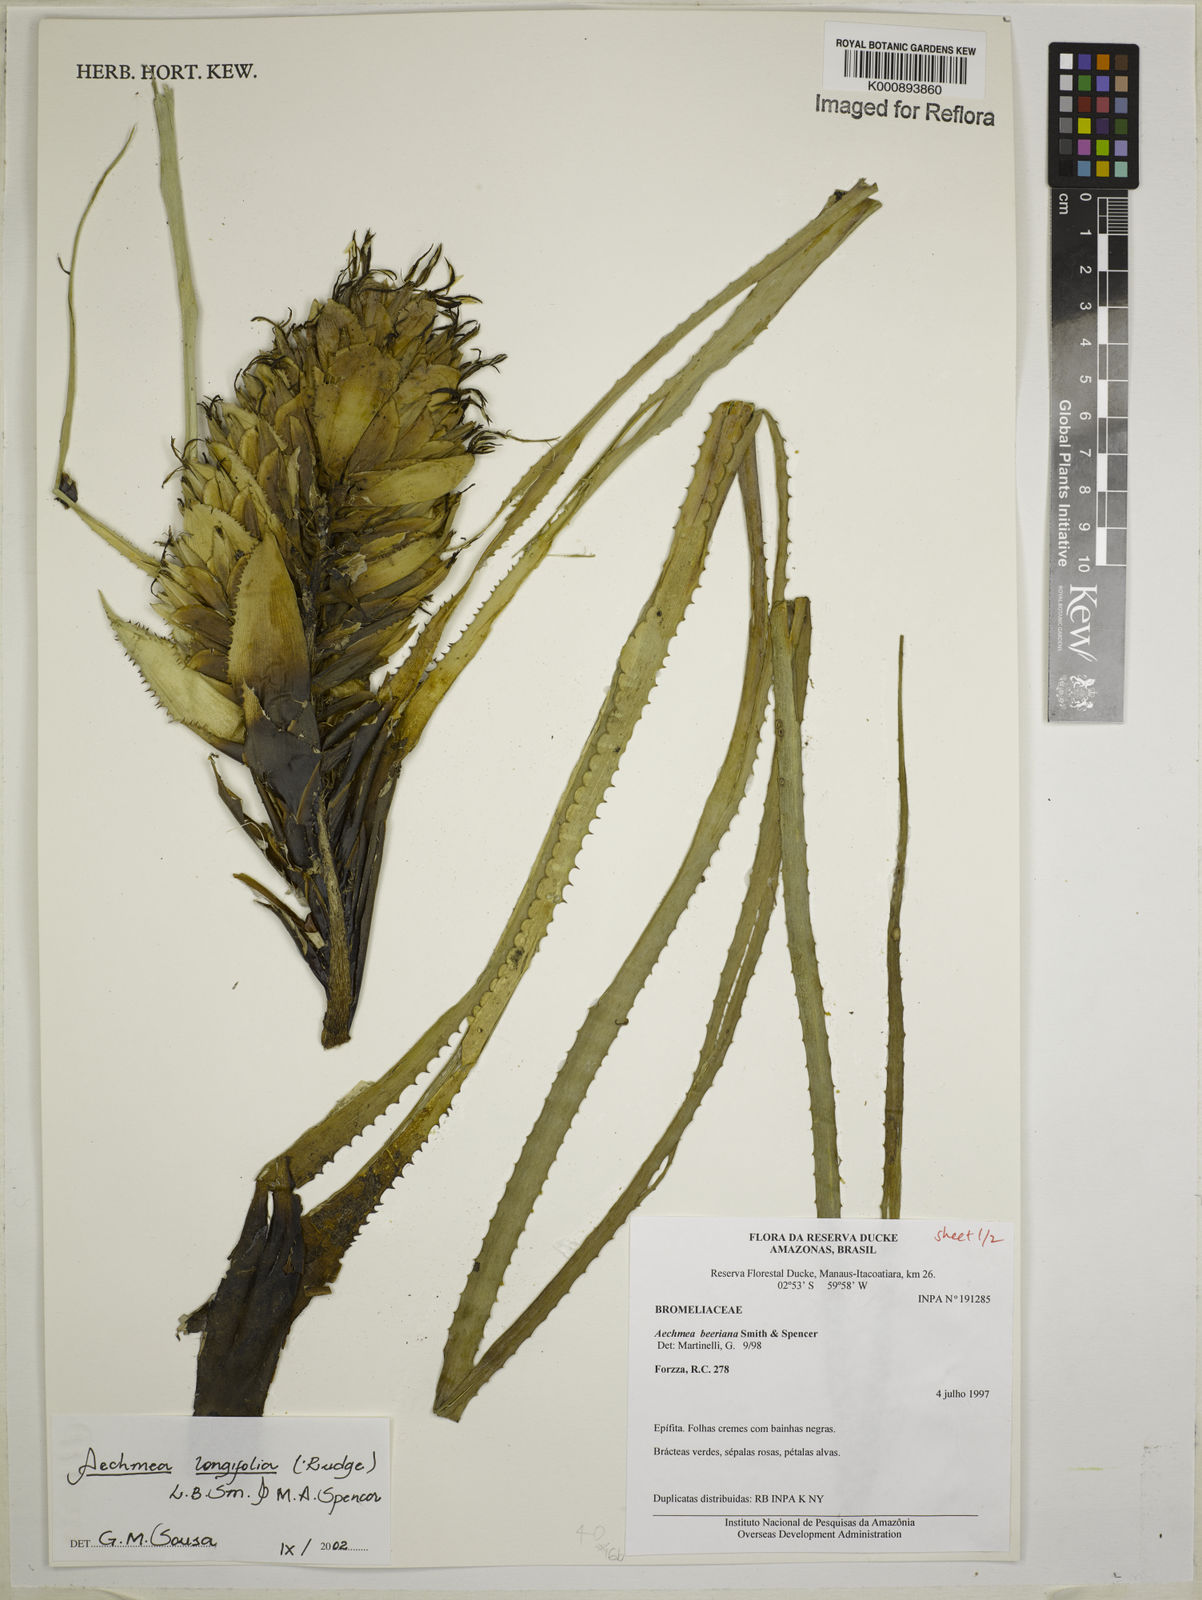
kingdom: Plantae
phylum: Tracheophyta
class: Liliopsida
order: Poales
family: Bromeliaceae
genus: Aechmea
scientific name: Aechmea longifolia
